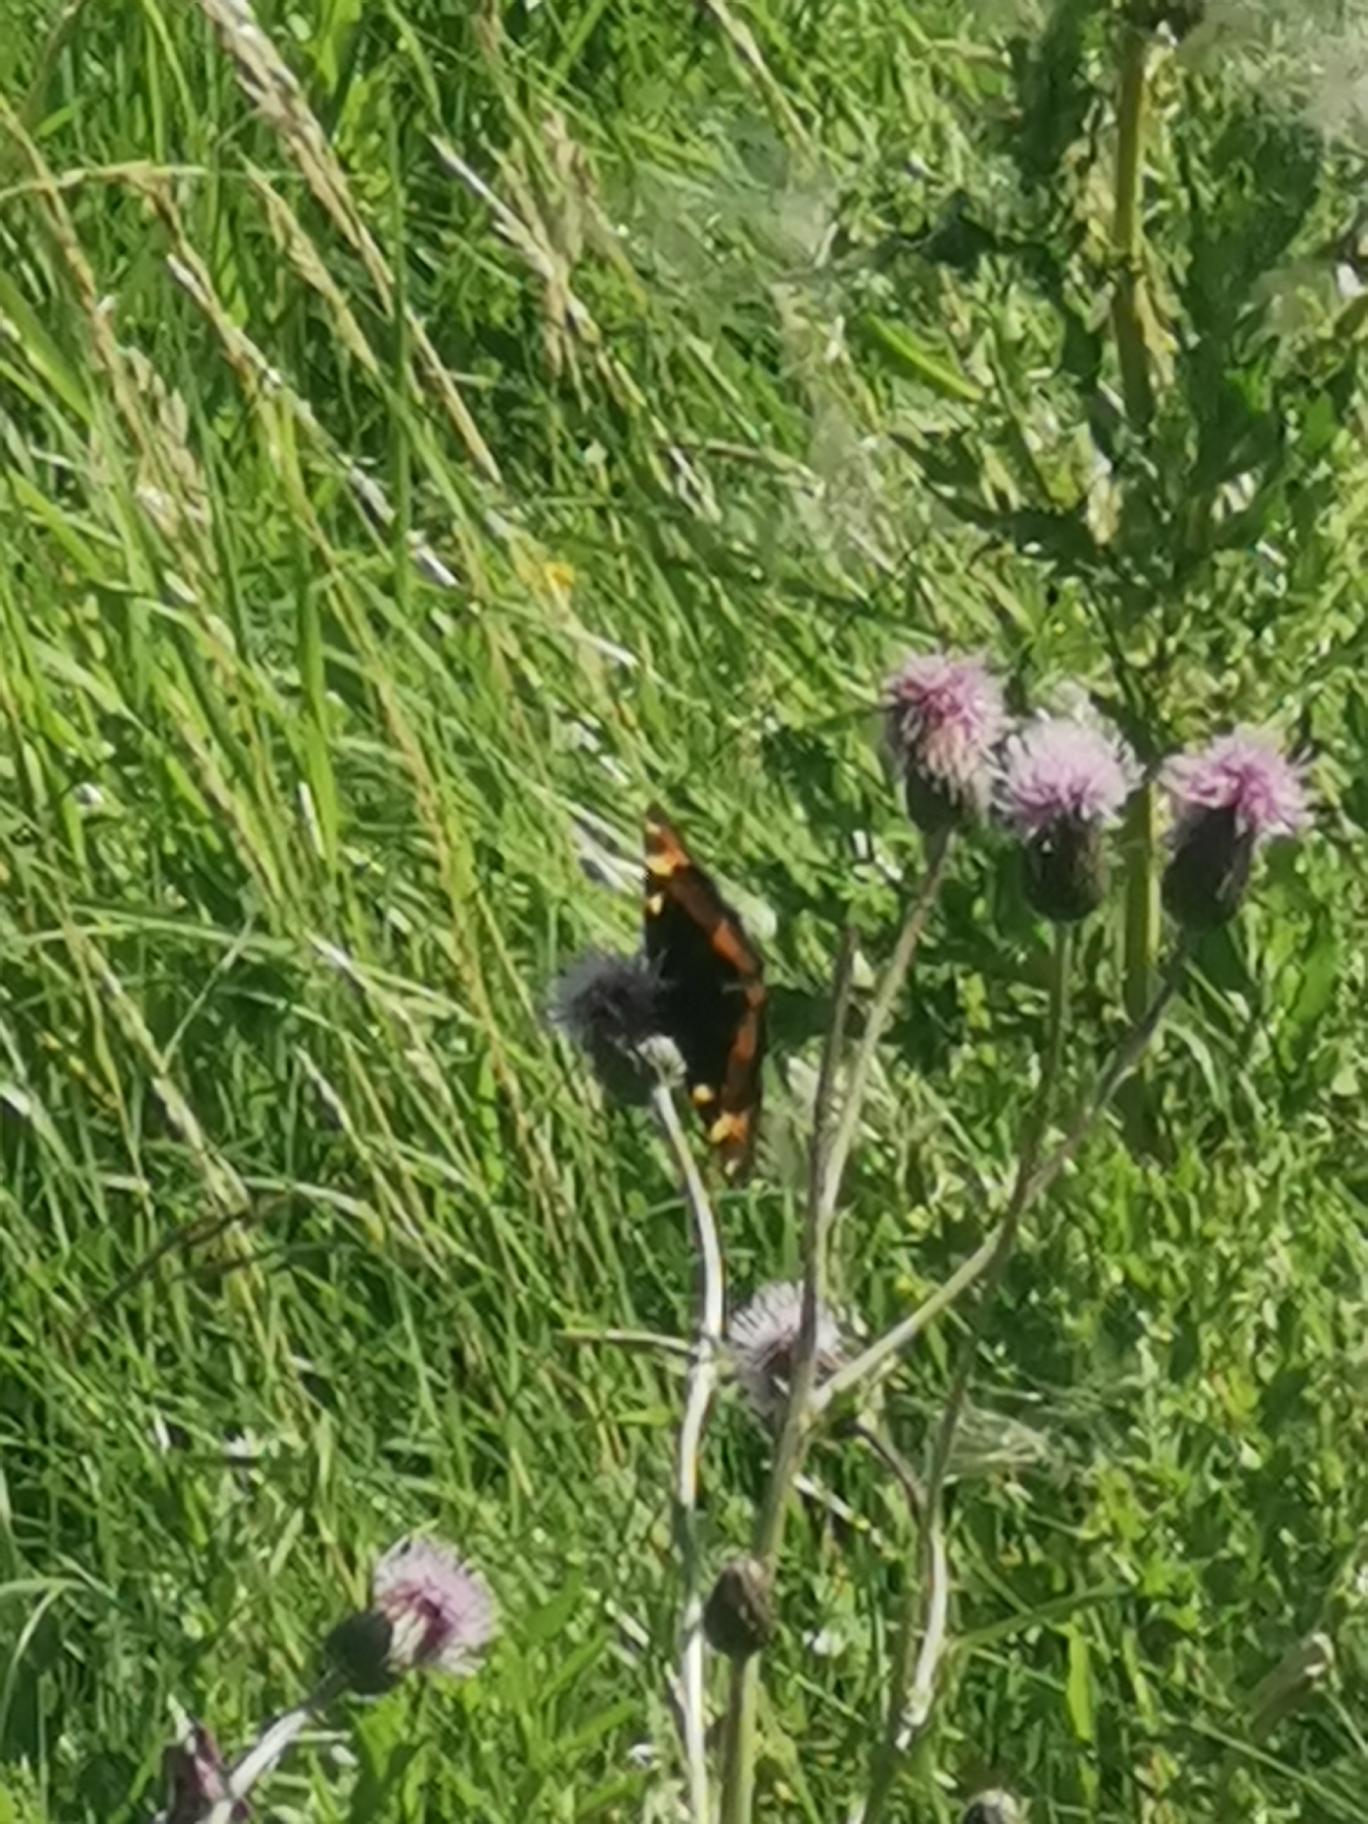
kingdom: Animalia
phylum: Arthropoda
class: Insecta
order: Lepidoptera
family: Nymphalidae
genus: Aglais
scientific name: Aglais urticae
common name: Nældens takvinge
